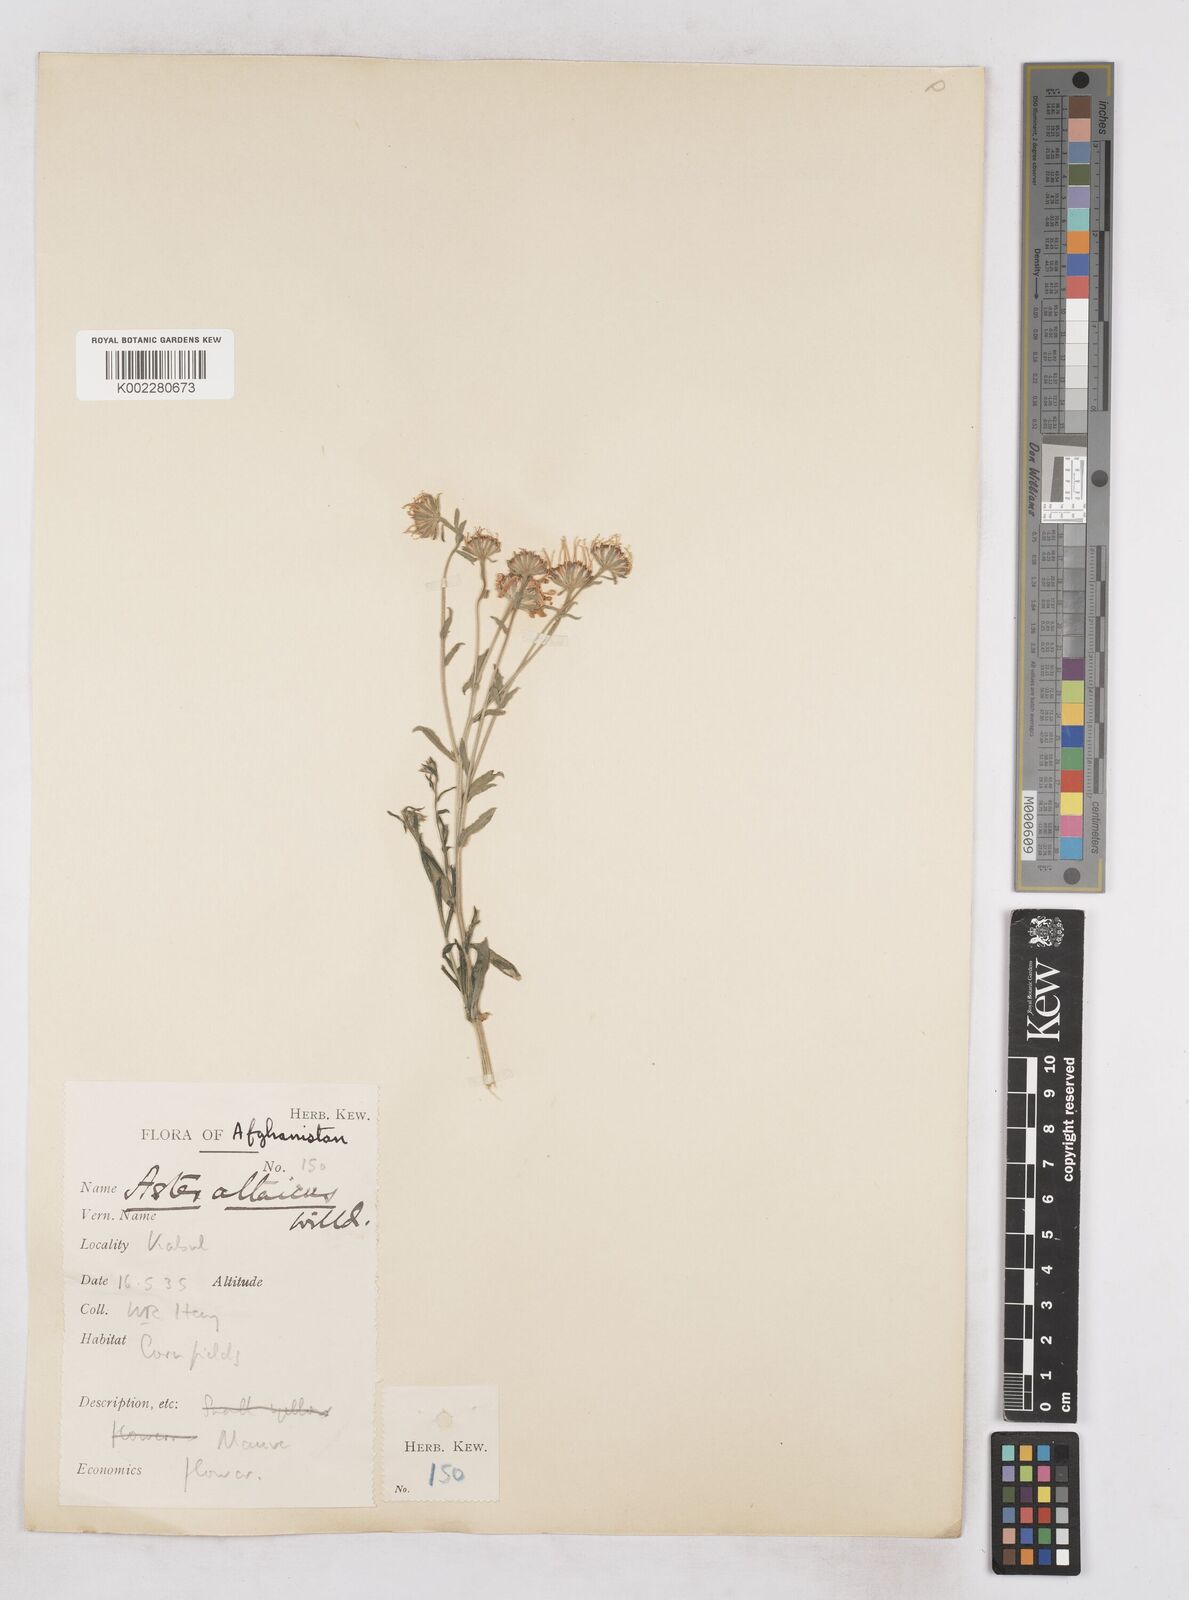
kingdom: Plantae
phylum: Tracheophyta
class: Magnoliopsida
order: Asterales
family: Asteraceae
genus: Heteropappus
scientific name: Heteropappus altaicus
